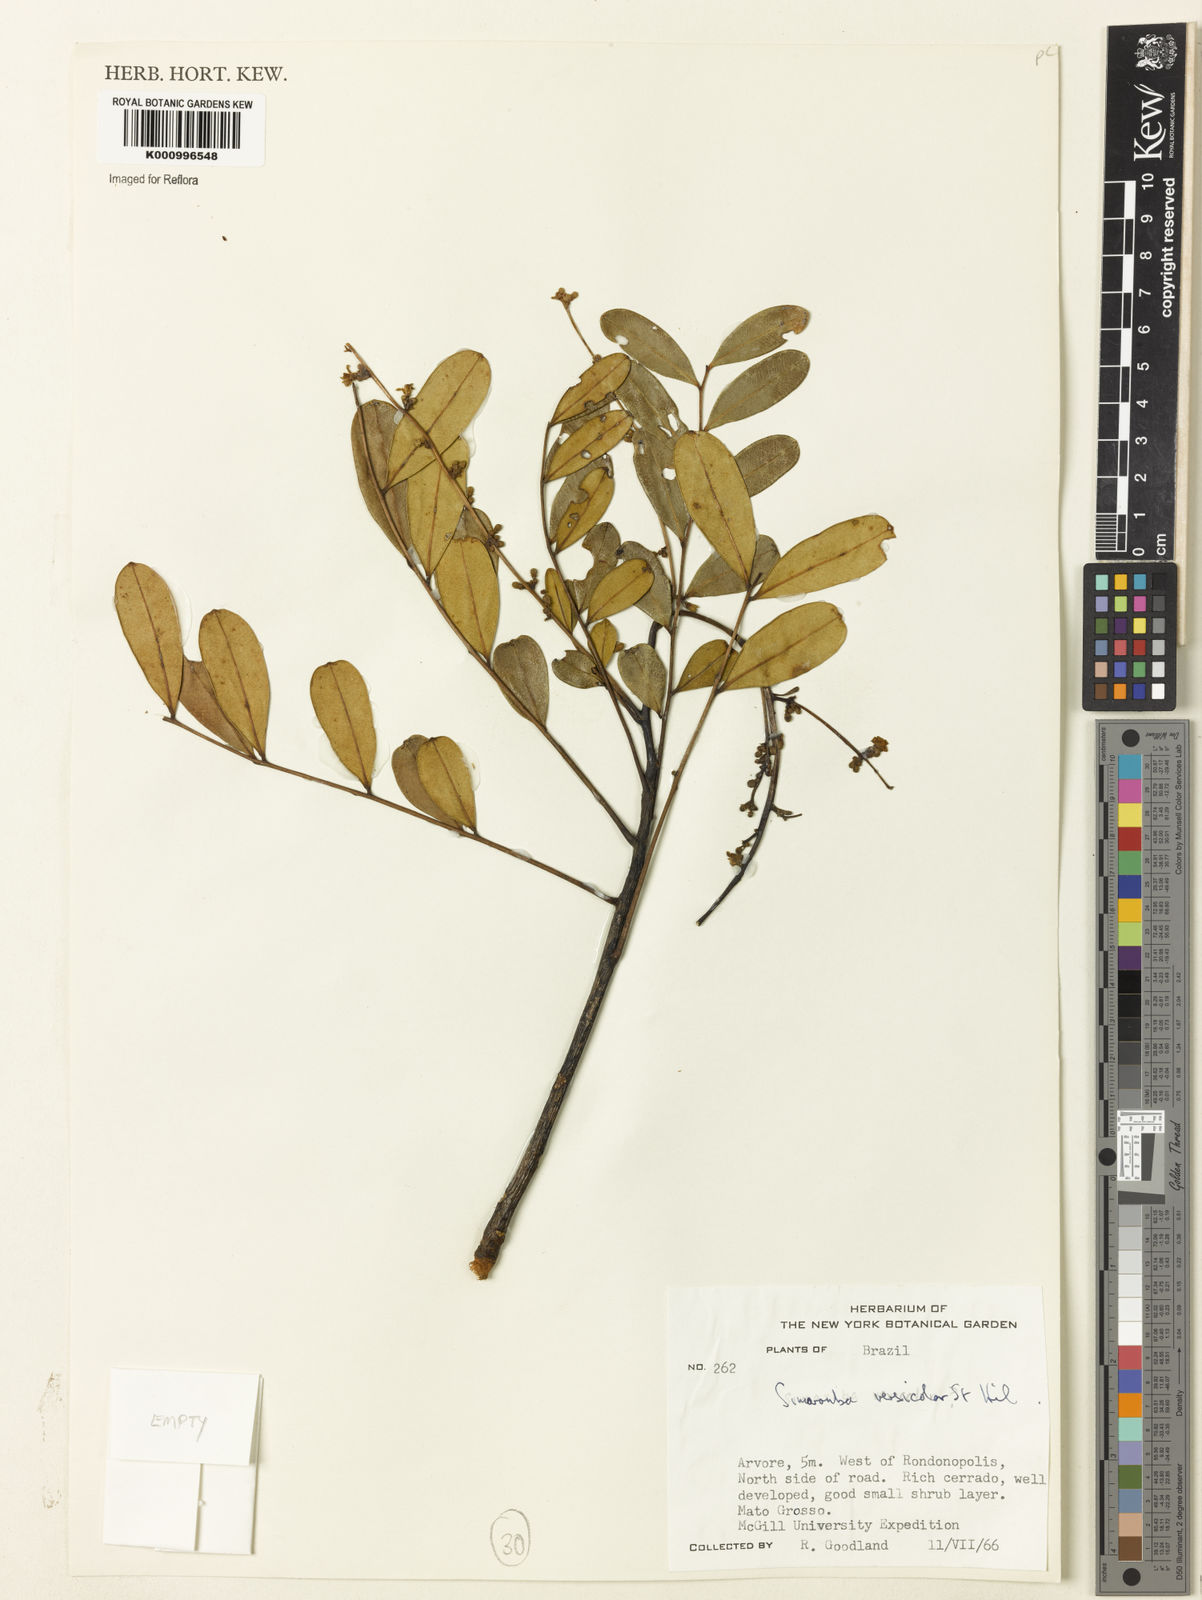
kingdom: Plantae
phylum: Tracheophyta
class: Magnoliopsida
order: Sapindales
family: Simaroubaceae
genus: Simarouba
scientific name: Simarouba versicolor
